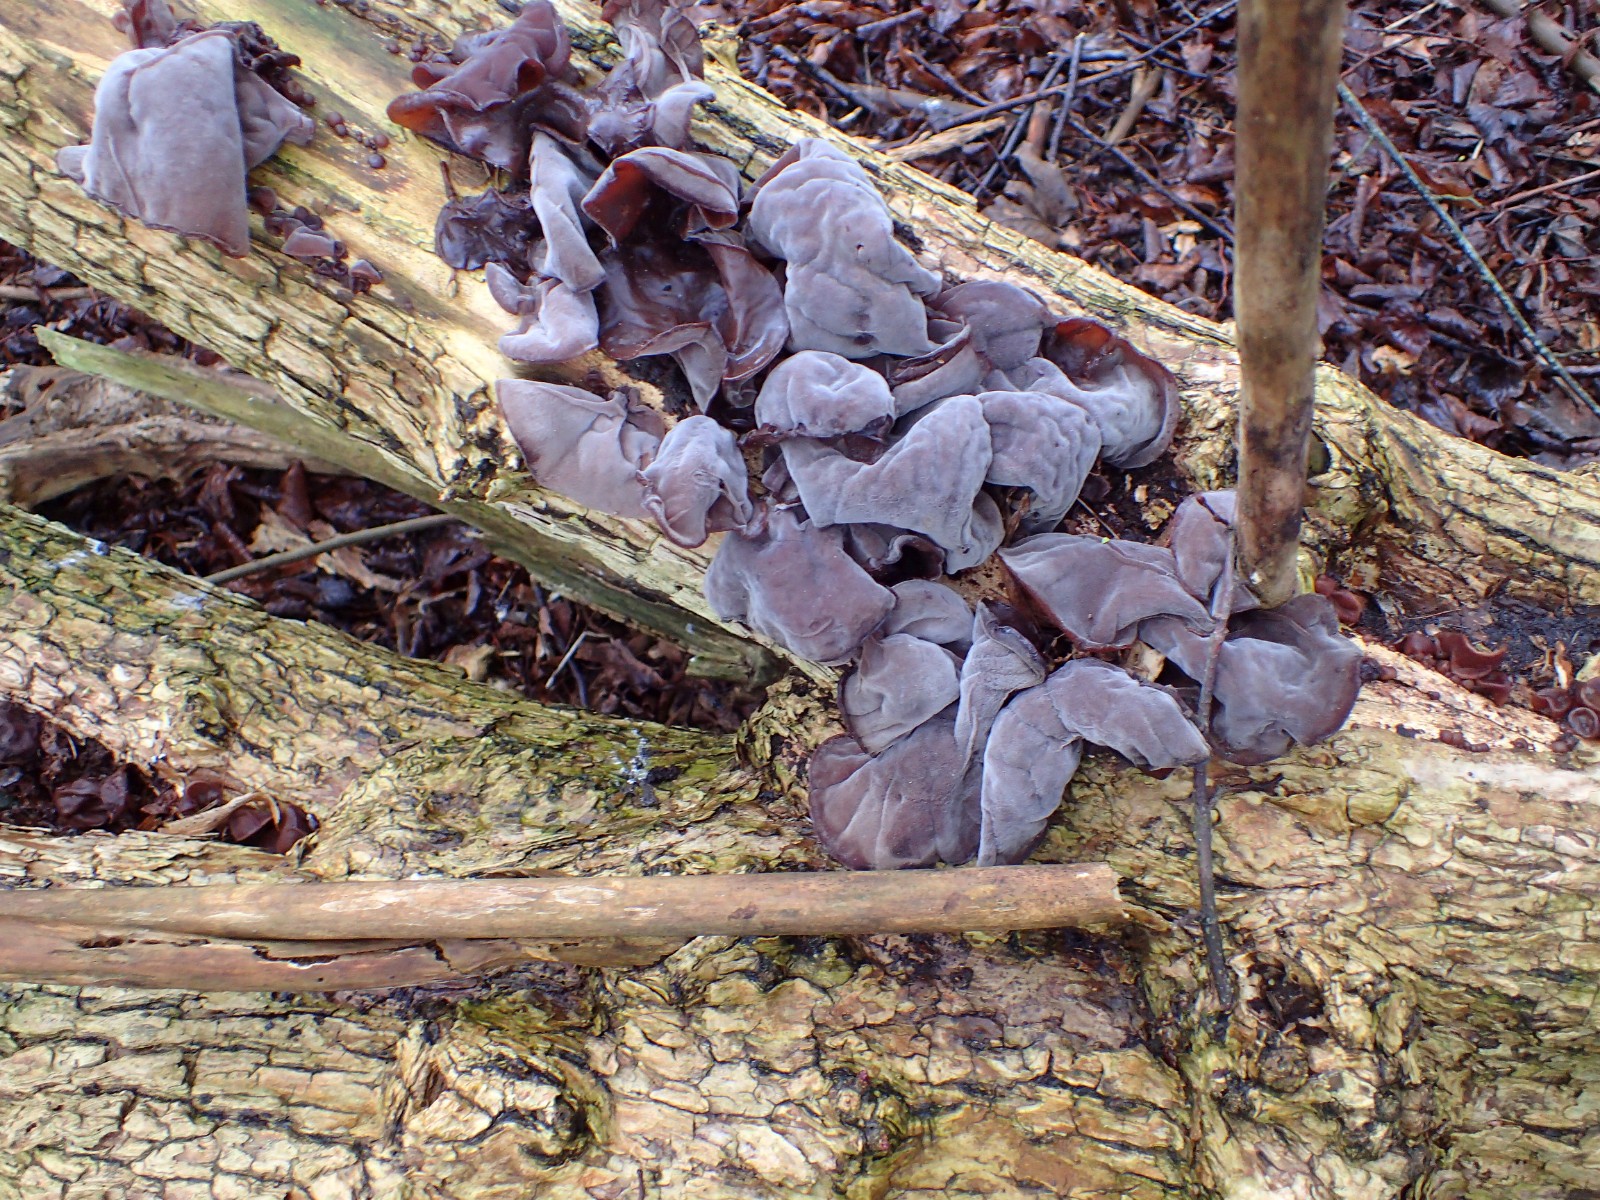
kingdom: Fungi
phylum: Basidiomycota
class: Agaricomycetes
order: Auriculariales
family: Auriculariaceae
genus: Auricularia
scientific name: Auricularia auricula-judae
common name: almindelig judasøre
